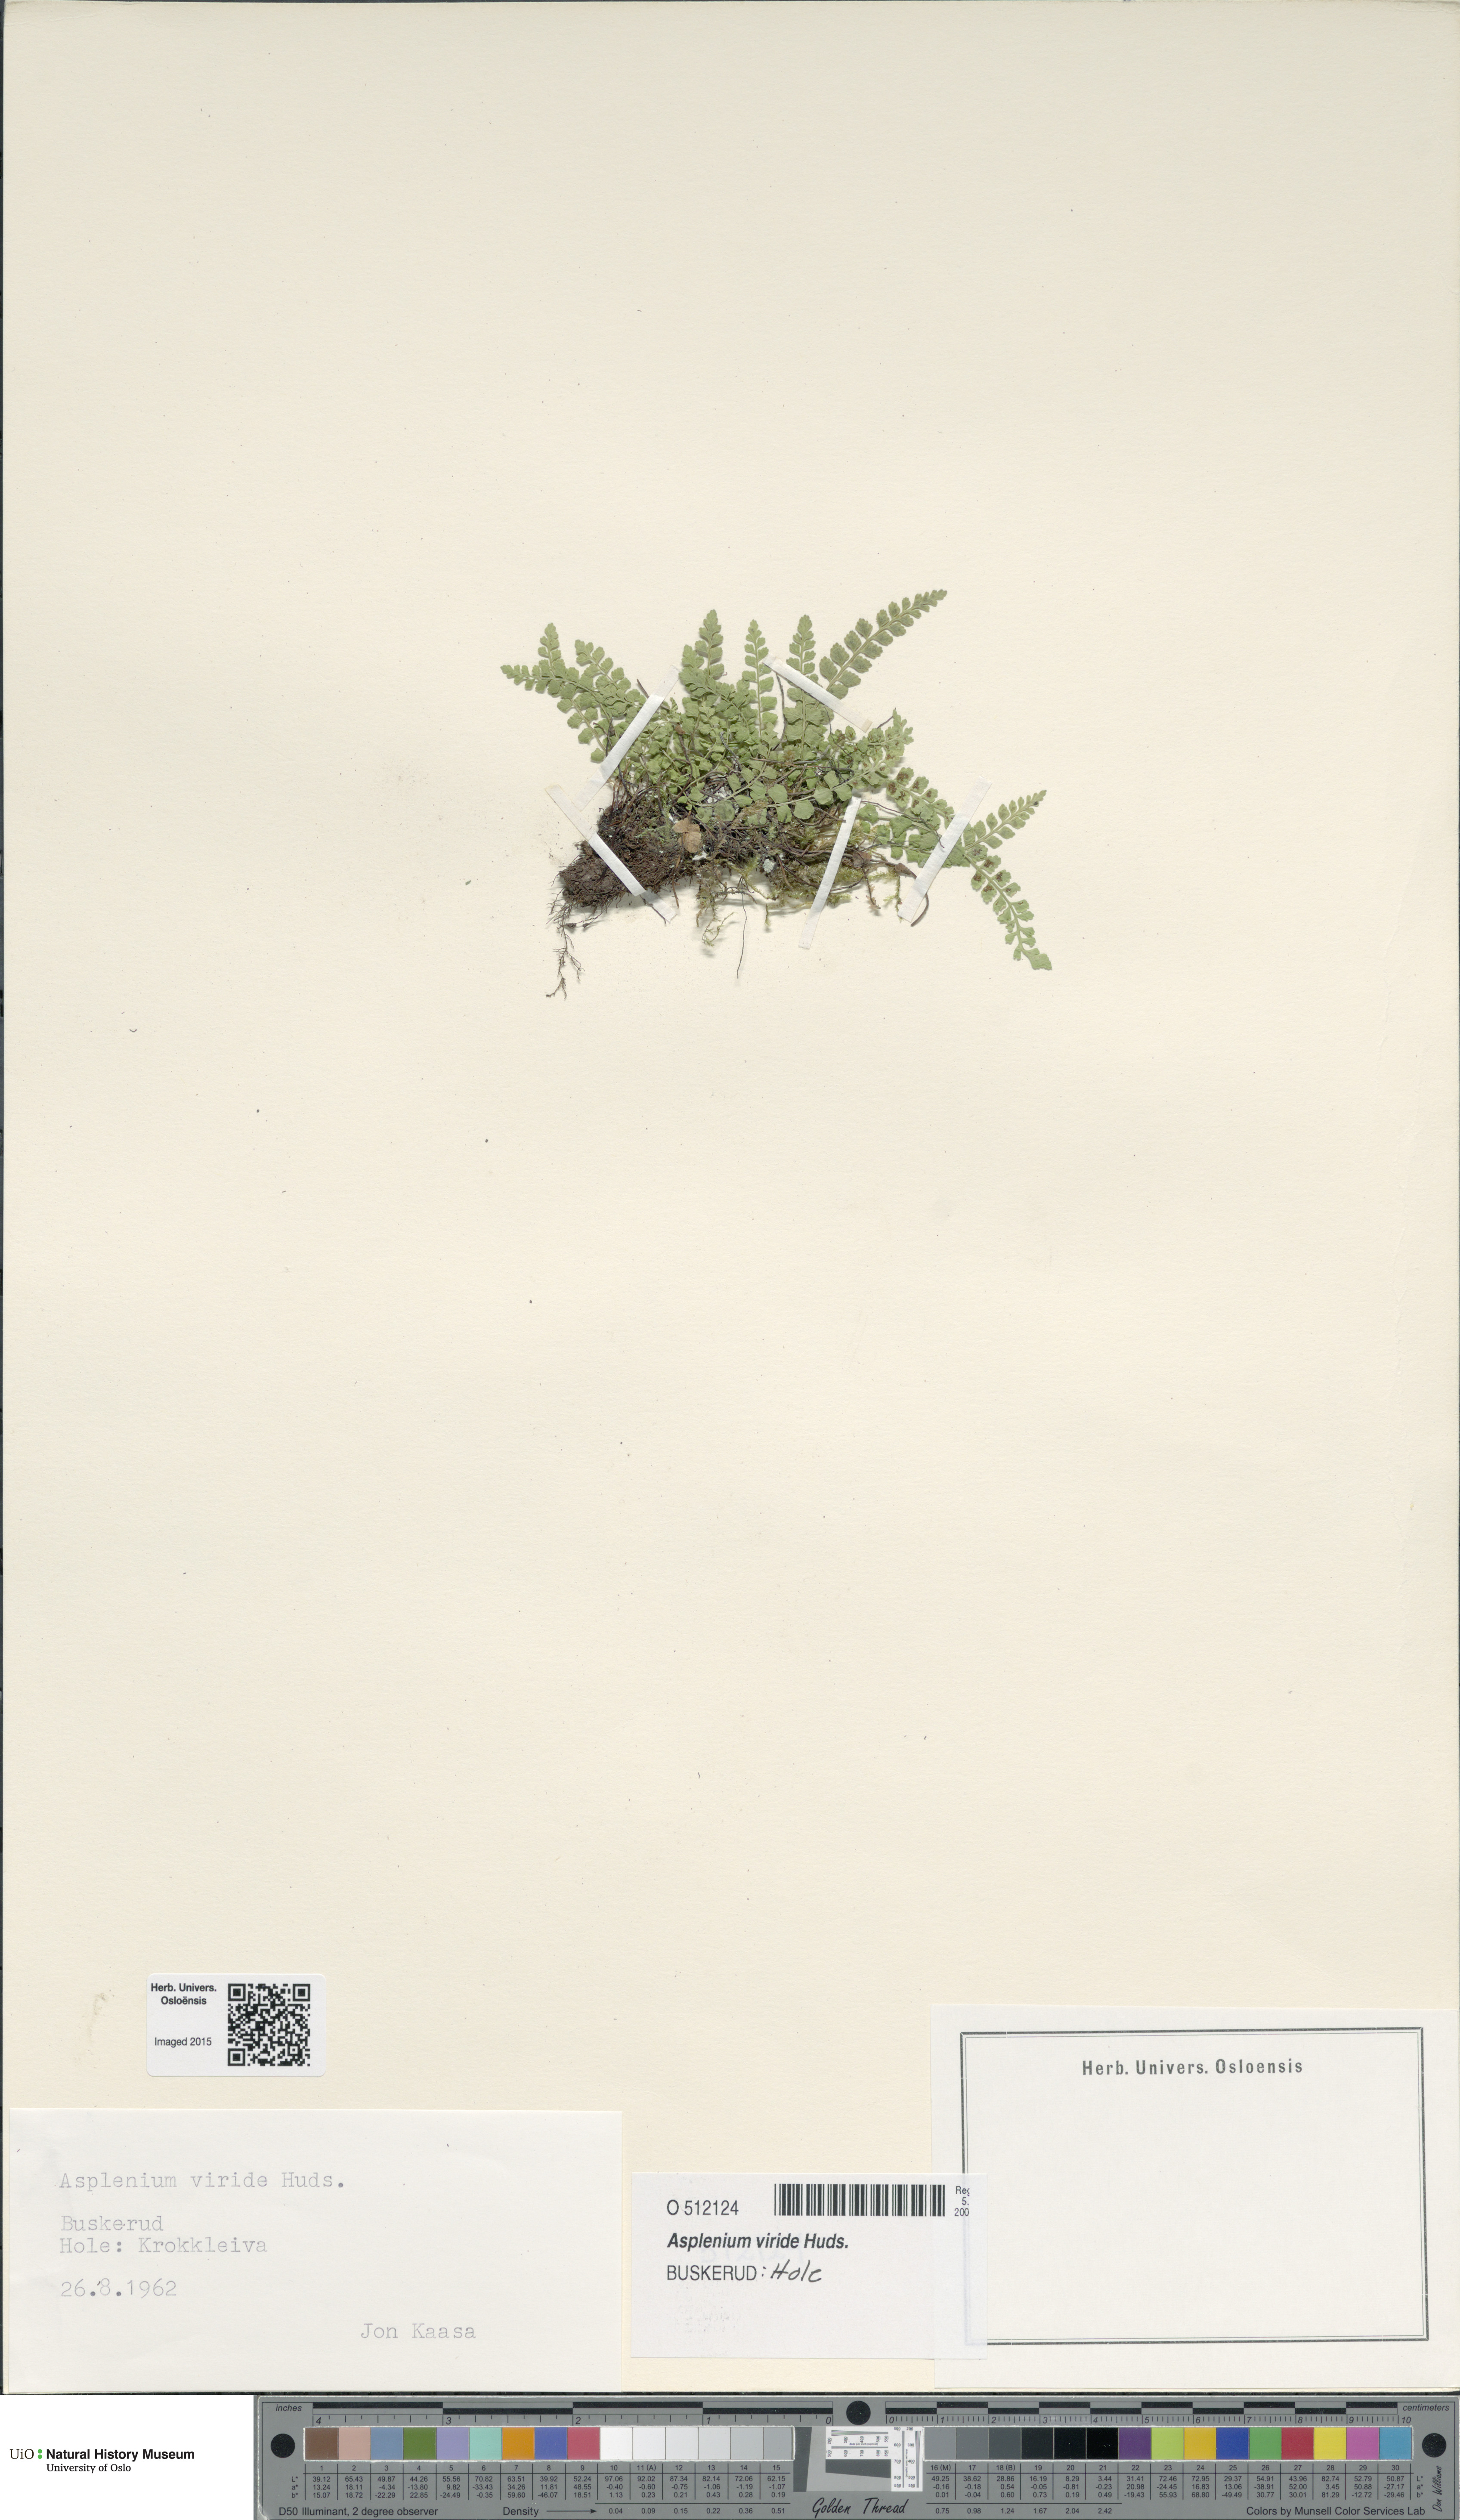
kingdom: Plantae
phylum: Tracheophyta
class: Polypodiopsida
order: Polypodiales
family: Aspleniaceae
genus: Asplenium
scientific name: Asplenium viride
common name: Green spleenwort
